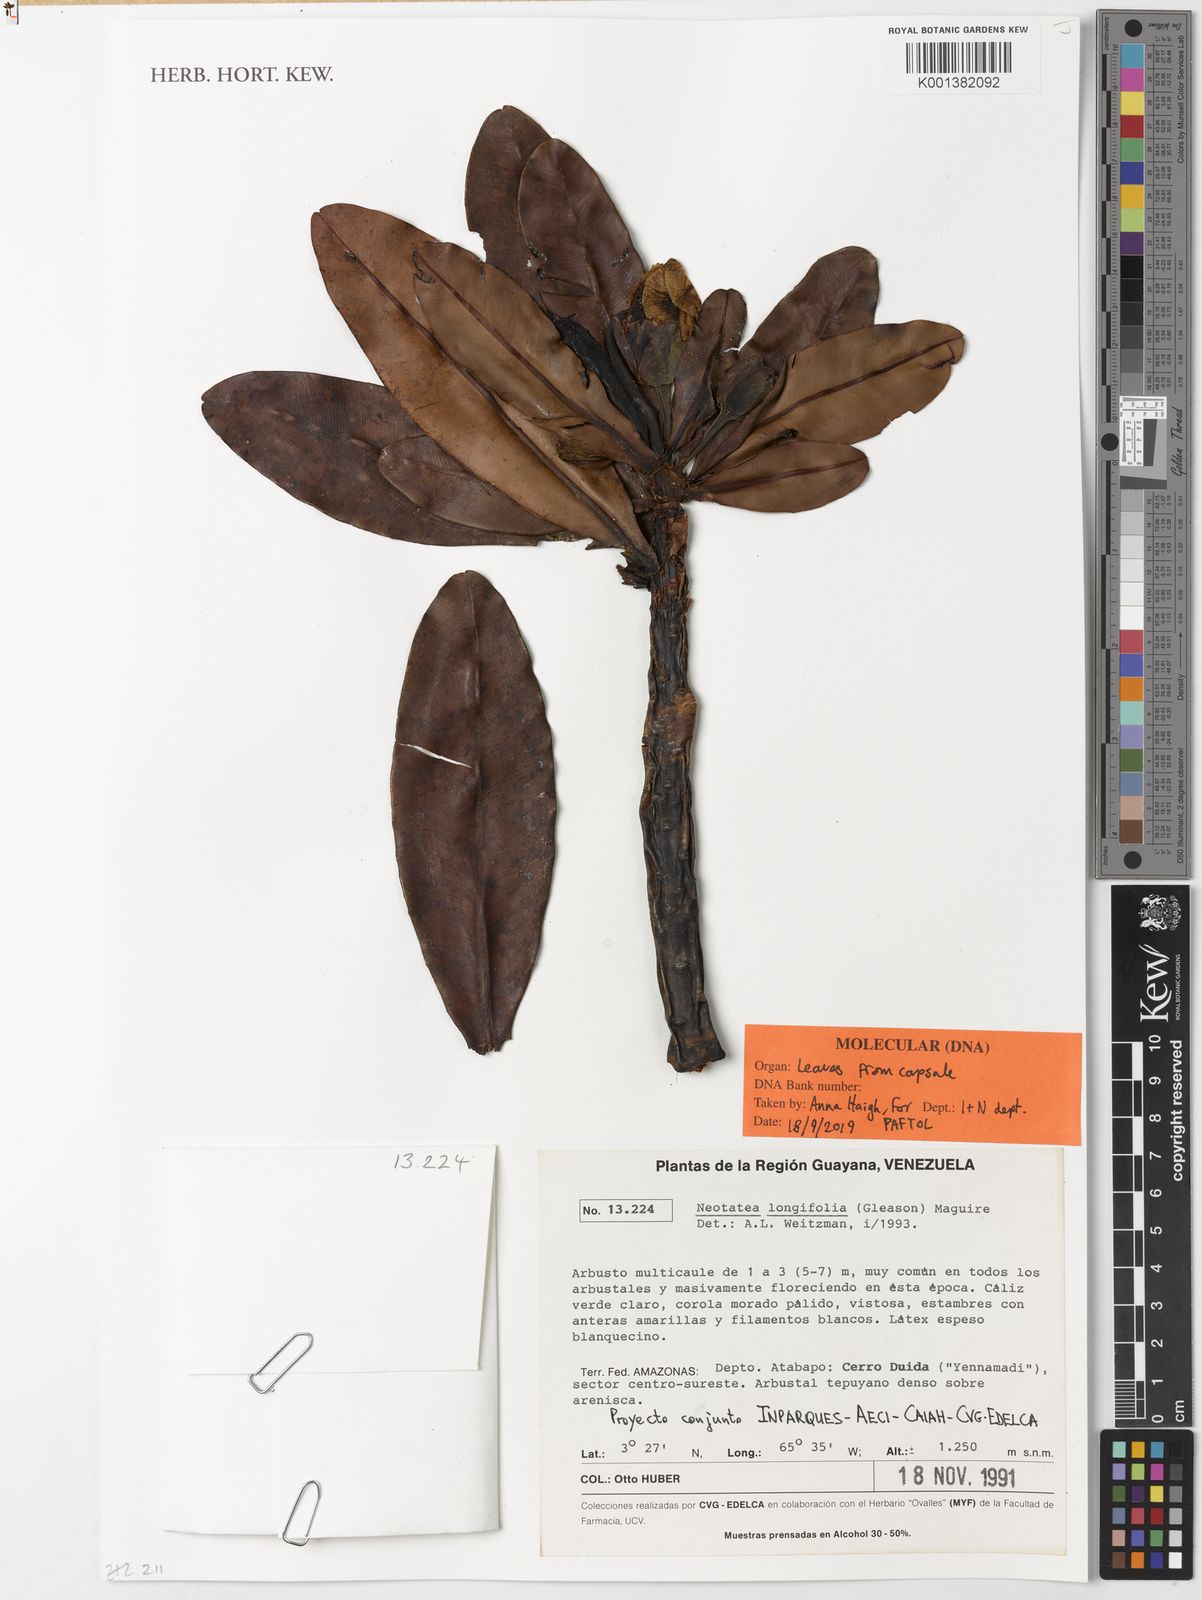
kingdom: Plantae
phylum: Tracheophyta
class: Magnoliopsida
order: Malpighiales
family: Calophyllaceae
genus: Neotatea
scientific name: Neotatea longifolia
